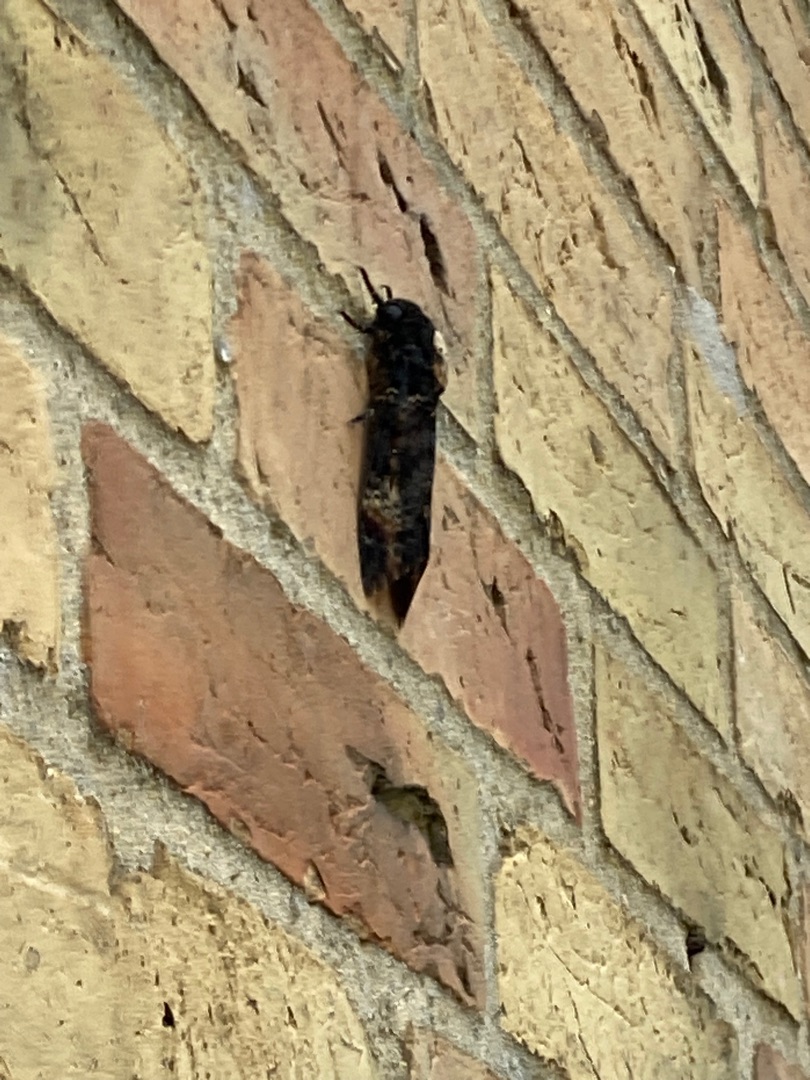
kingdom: Animalia
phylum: Arthropoda
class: Insecta
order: Lepidoptera
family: Sphingidae
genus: Acherontia
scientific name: Acherontia atropos
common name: Dødningehoved
